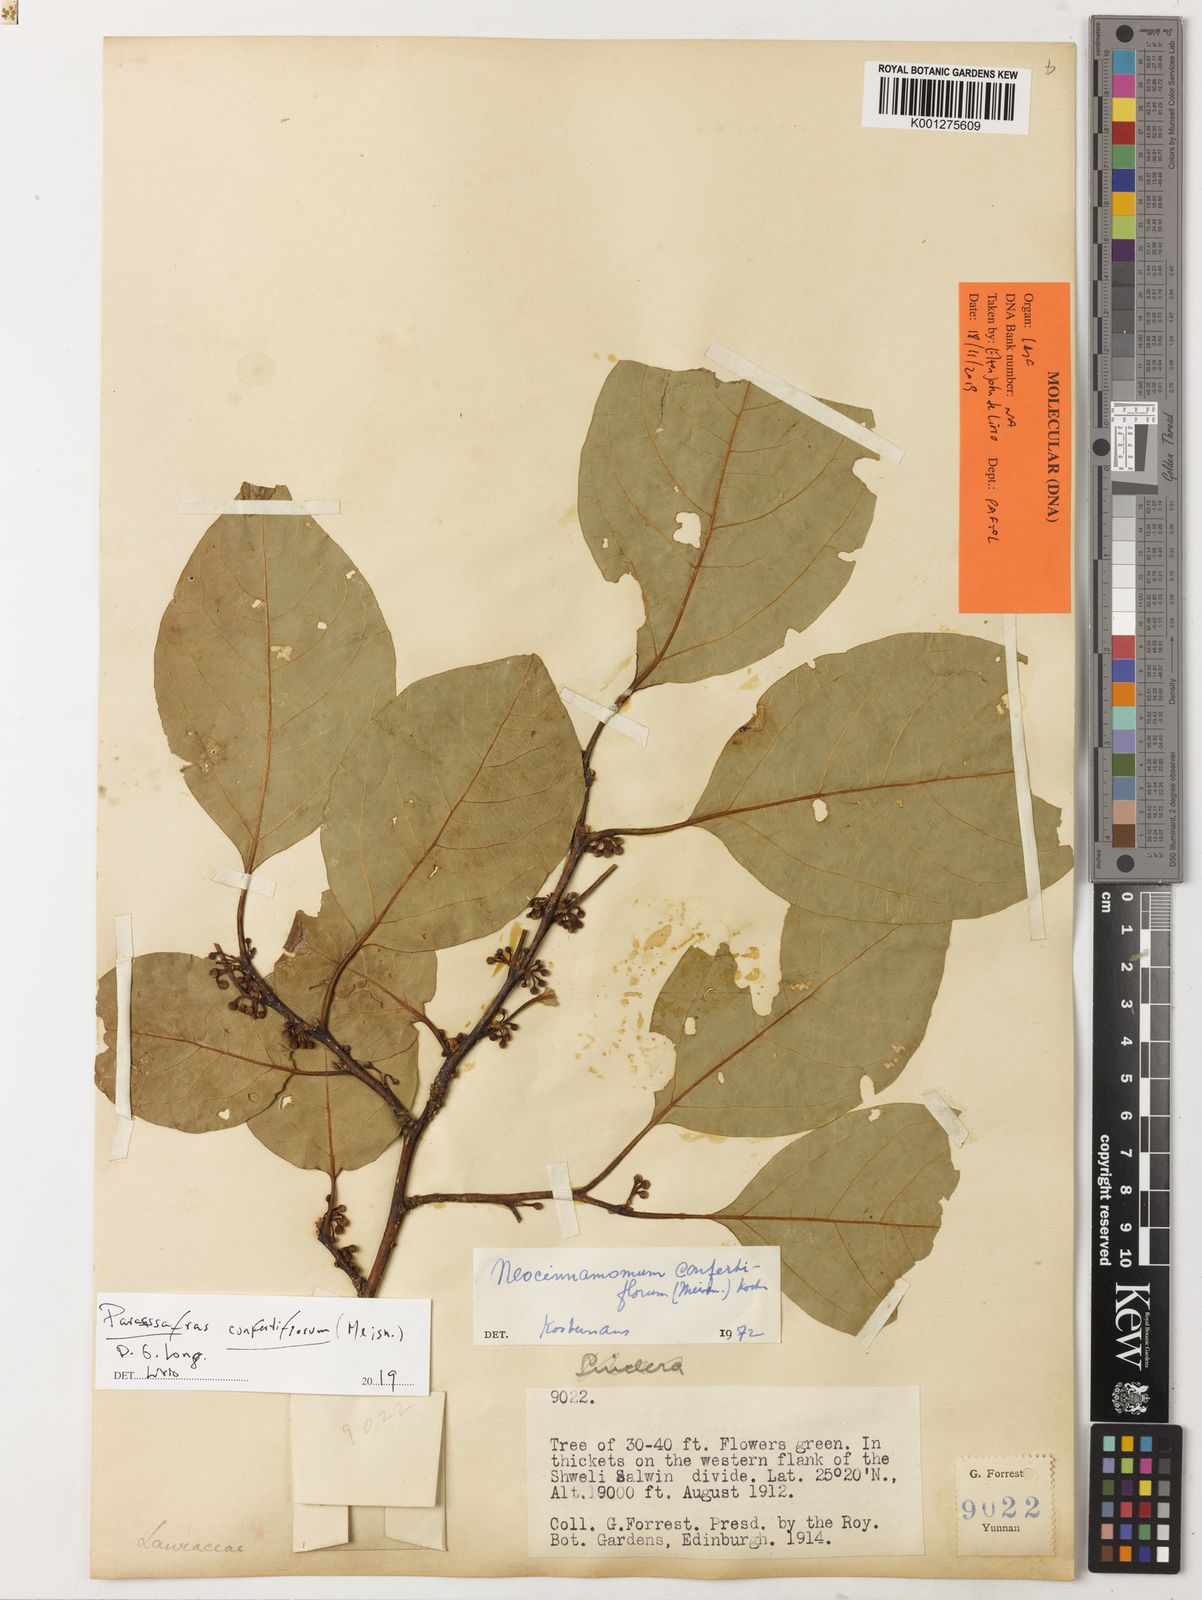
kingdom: Plantae
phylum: Tracheophyta
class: Magnoliopsida
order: Laurales
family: Lauraceae
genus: Parasassafras
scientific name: Parasassafras confertiflora
